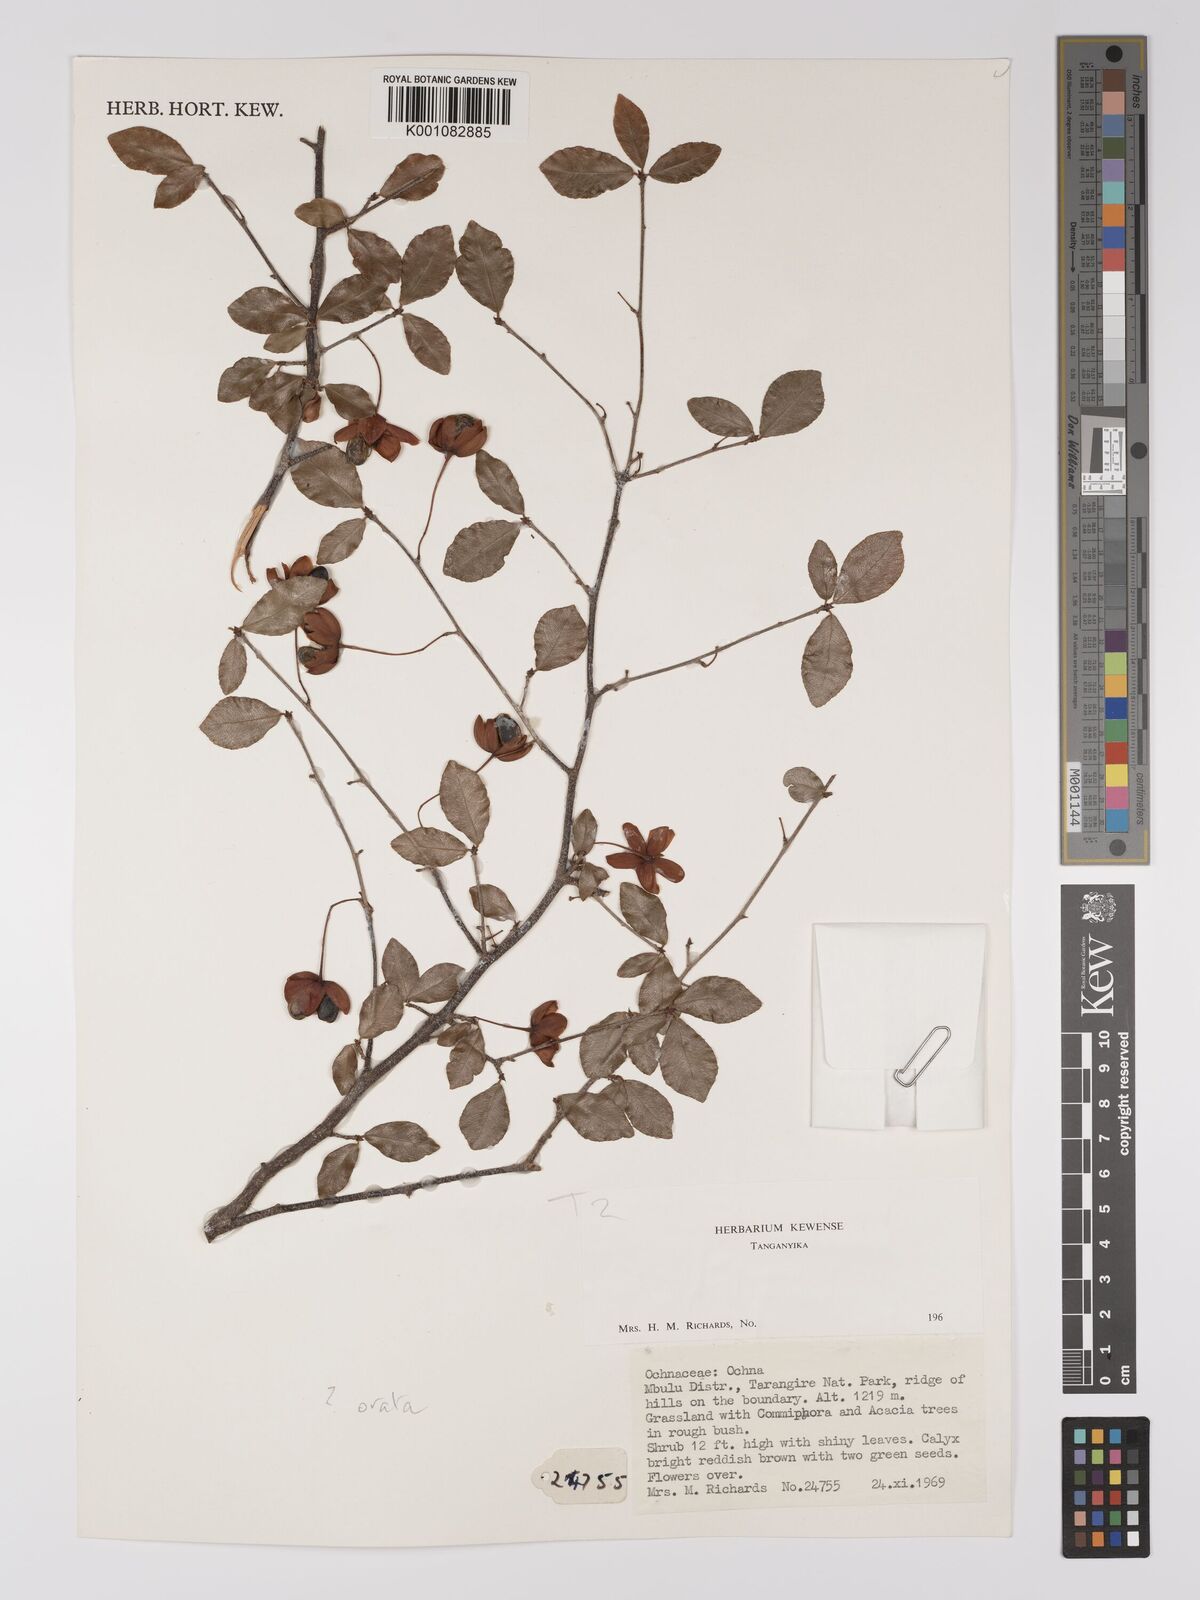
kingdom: Plantae
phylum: Tracheophyta
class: Magnoliopsida
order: Malpighiales
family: Ochnaceae
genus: Ochna
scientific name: Ochna ovata
